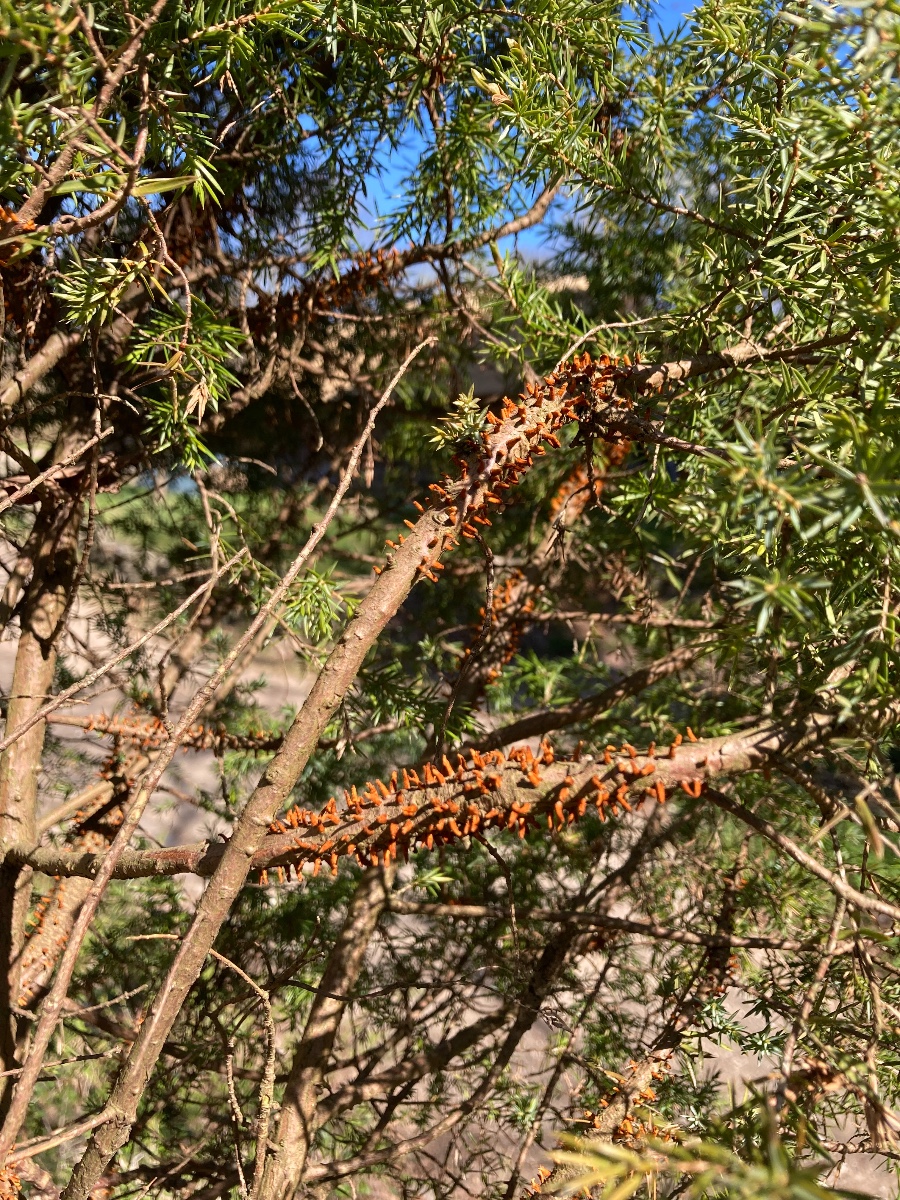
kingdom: Fungi
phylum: Basidiomycota
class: Pucciniomycetes
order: Pucciniales
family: Gymnosporangiaceae
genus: Gymnosporangium
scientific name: Gymnosporangium clavariiforme
